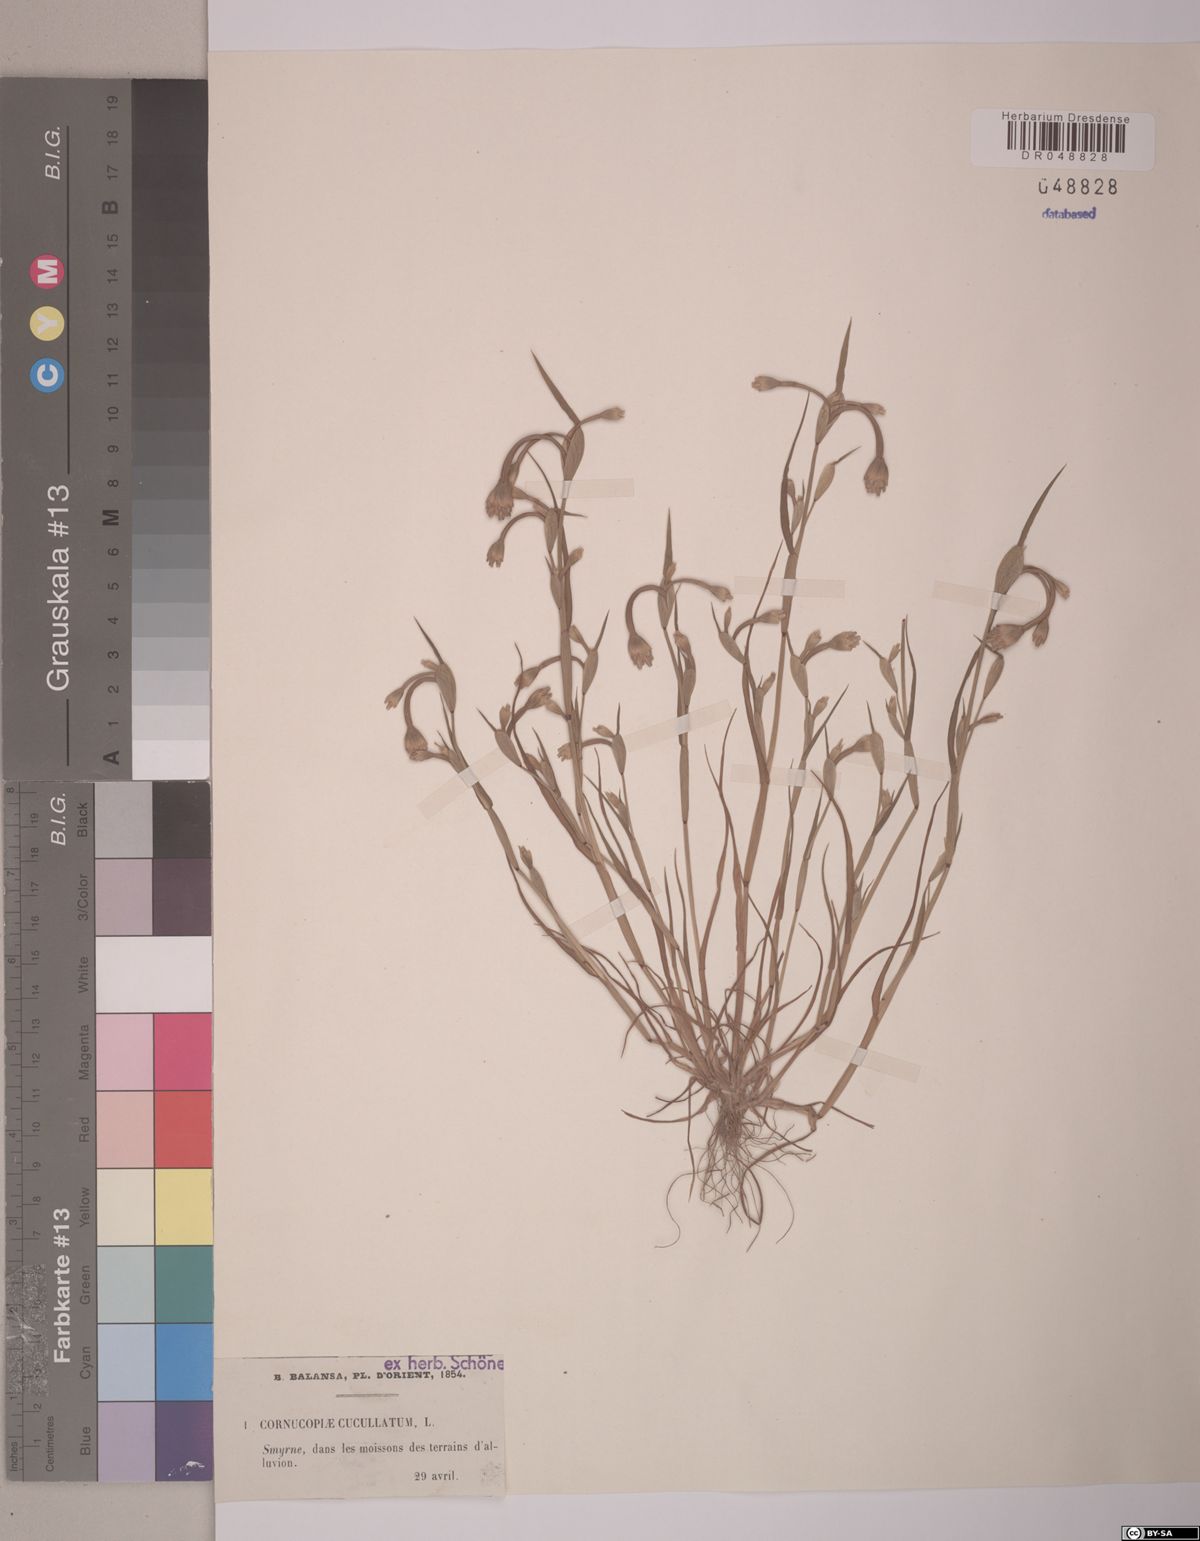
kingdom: Plantae
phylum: Tracheophyta
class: Liliopsida
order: Poales
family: Poaceae
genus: Cornucopiae
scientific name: Cornucopiae cucullatum
